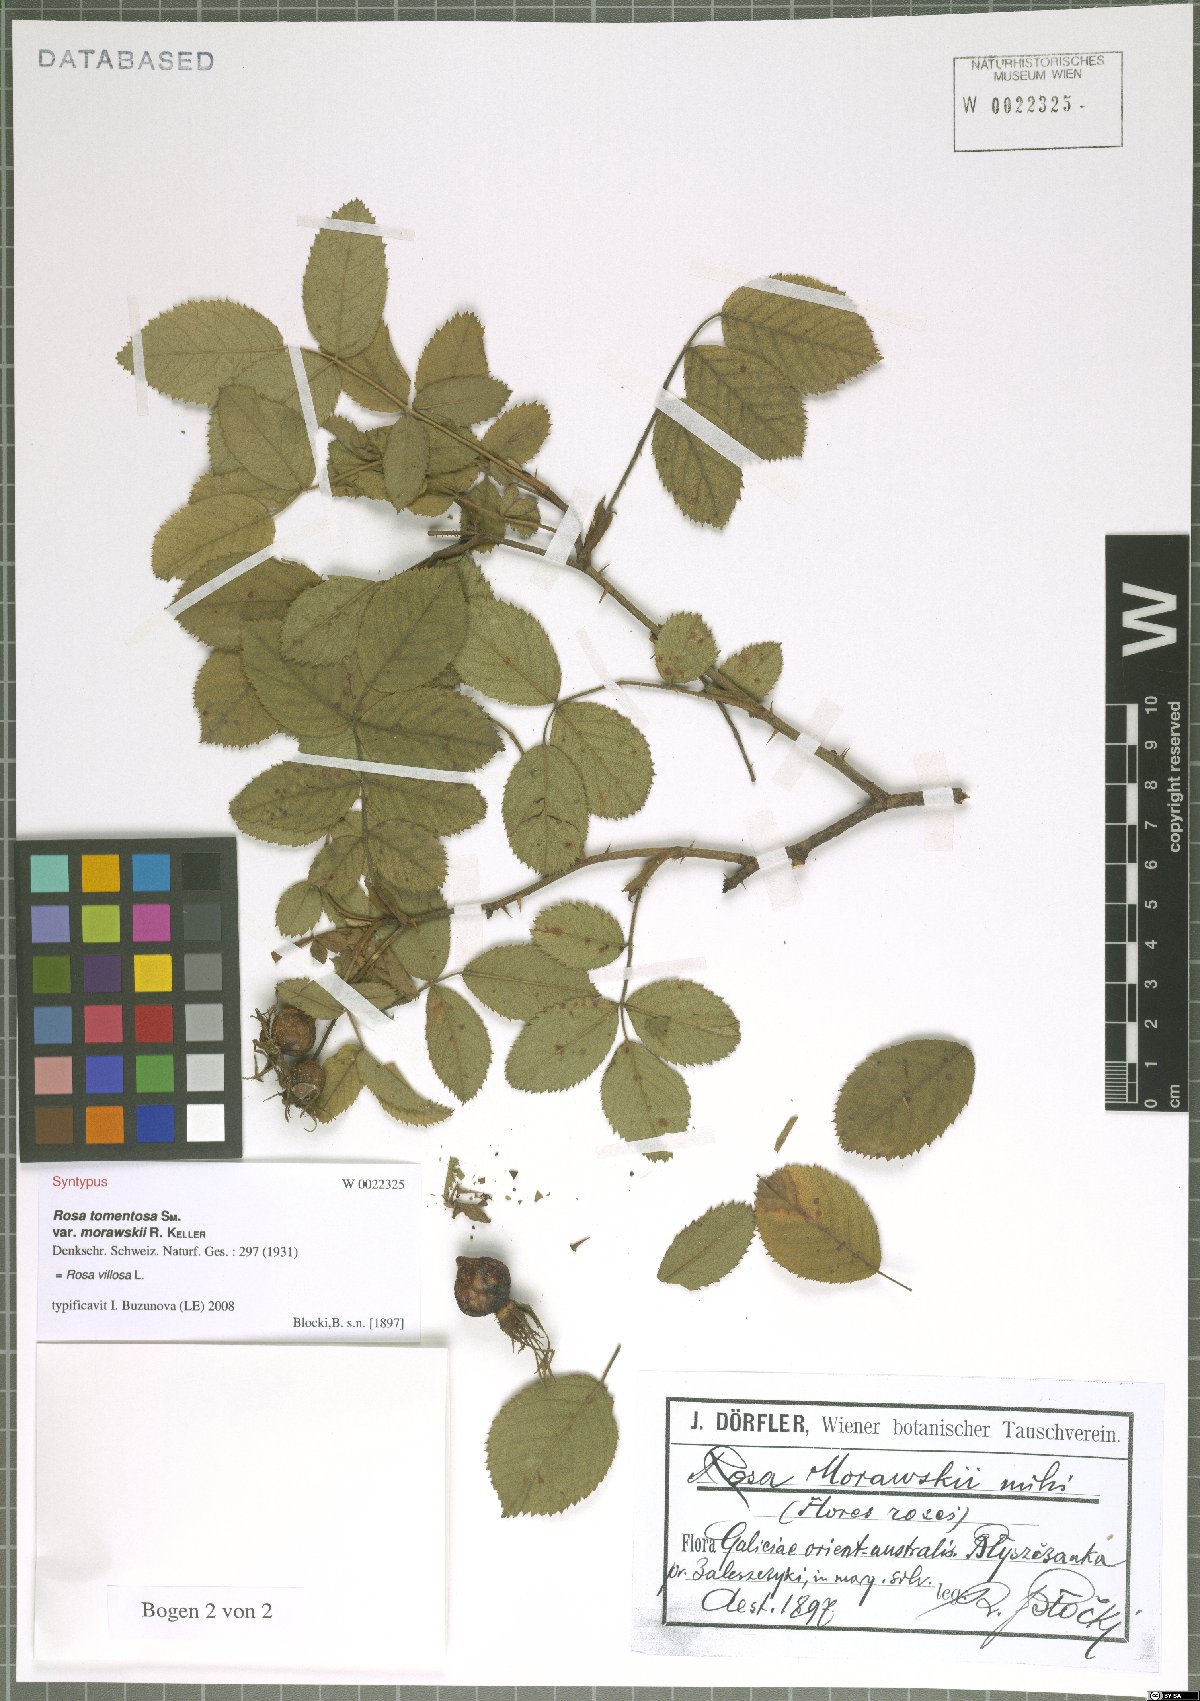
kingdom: Plantae
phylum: Tracheophyta
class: Magnoliopsida
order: Rosales
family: Rosaceae
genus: Rosa
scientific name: Rosa villosa
